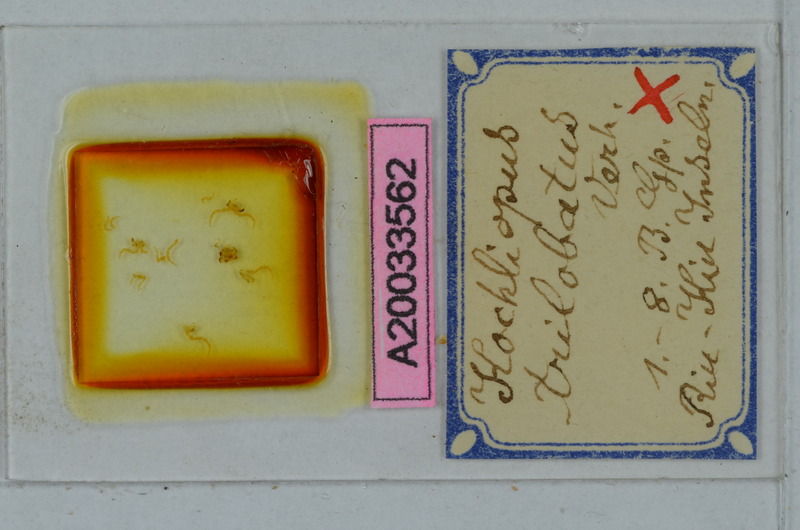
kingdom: Animalia
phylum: Arthropoda
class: Diplopoda
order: Polydesmida
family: Paradoxosomatidae
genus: Helicorthomorpha
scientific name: Helicorthomorpha holstii
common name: Millipede
